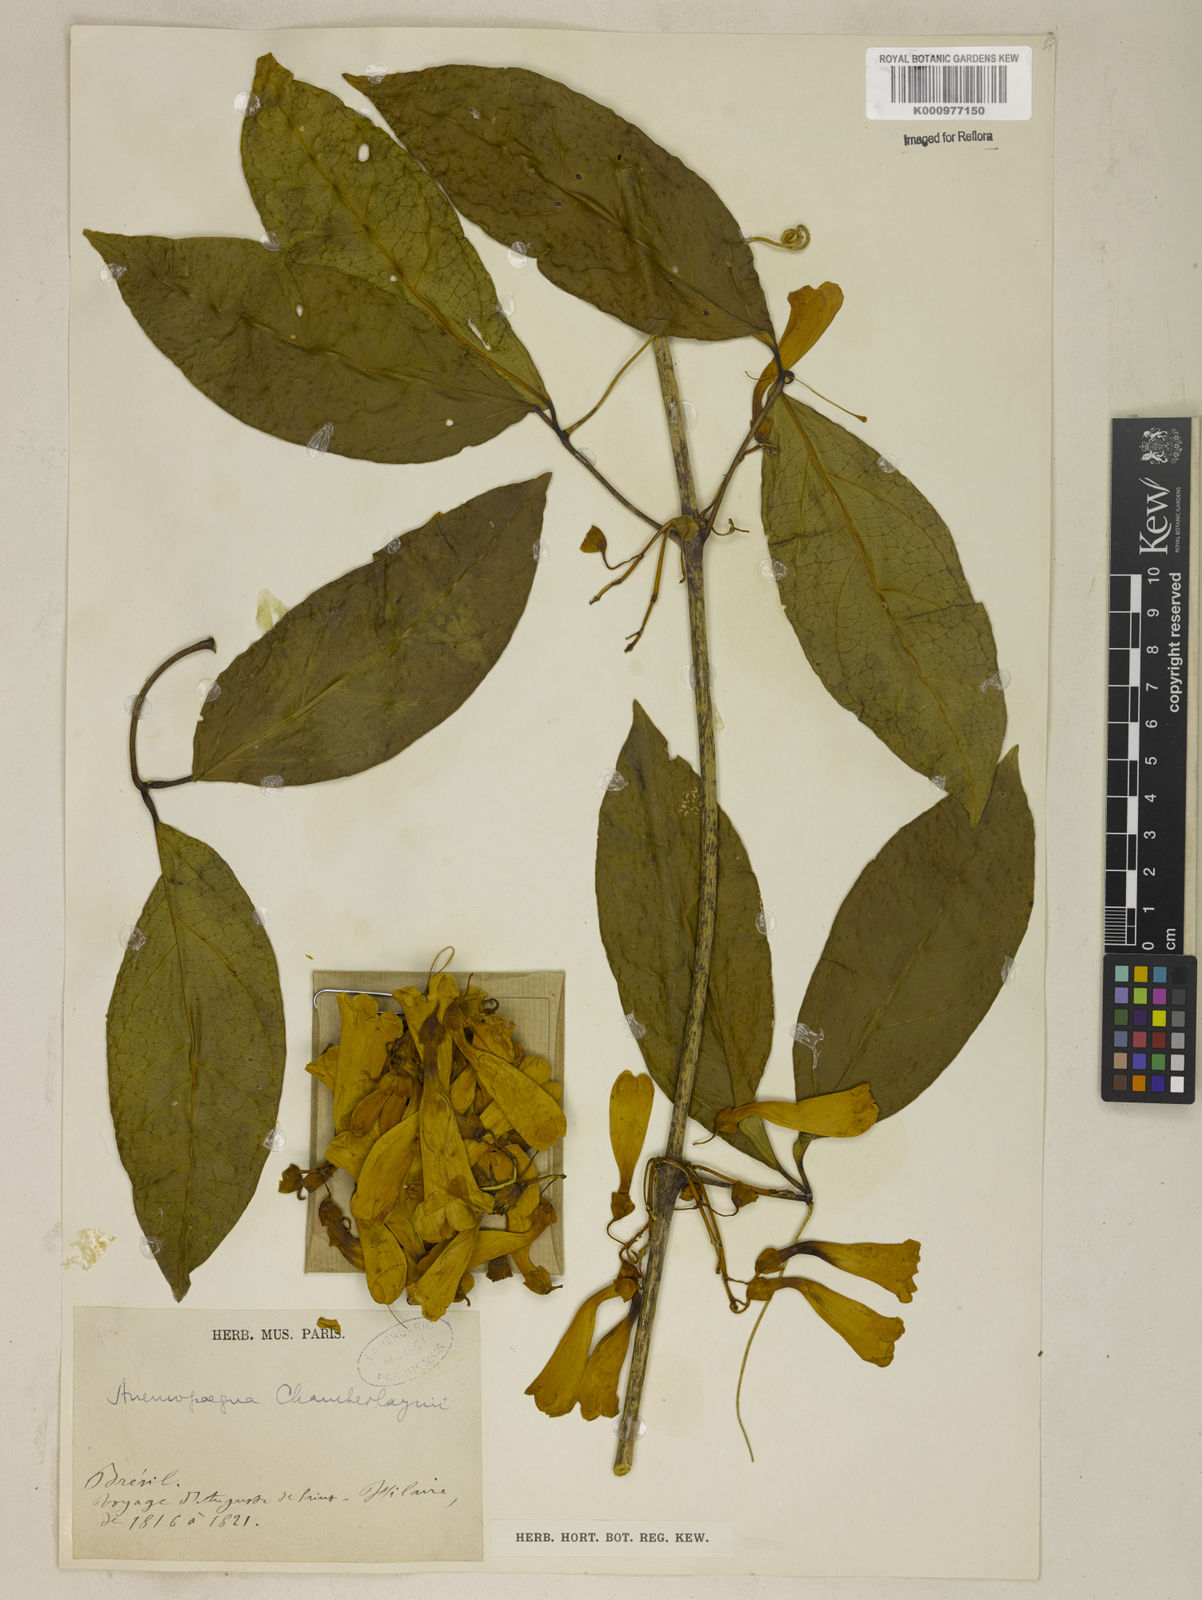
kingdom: Plantae
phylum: Tracheophyta
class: Magnoliopsida
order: Lamiales
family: Bignoniaceae
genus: Anemopaegma
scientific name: Anemopaegma chamberlaynii
